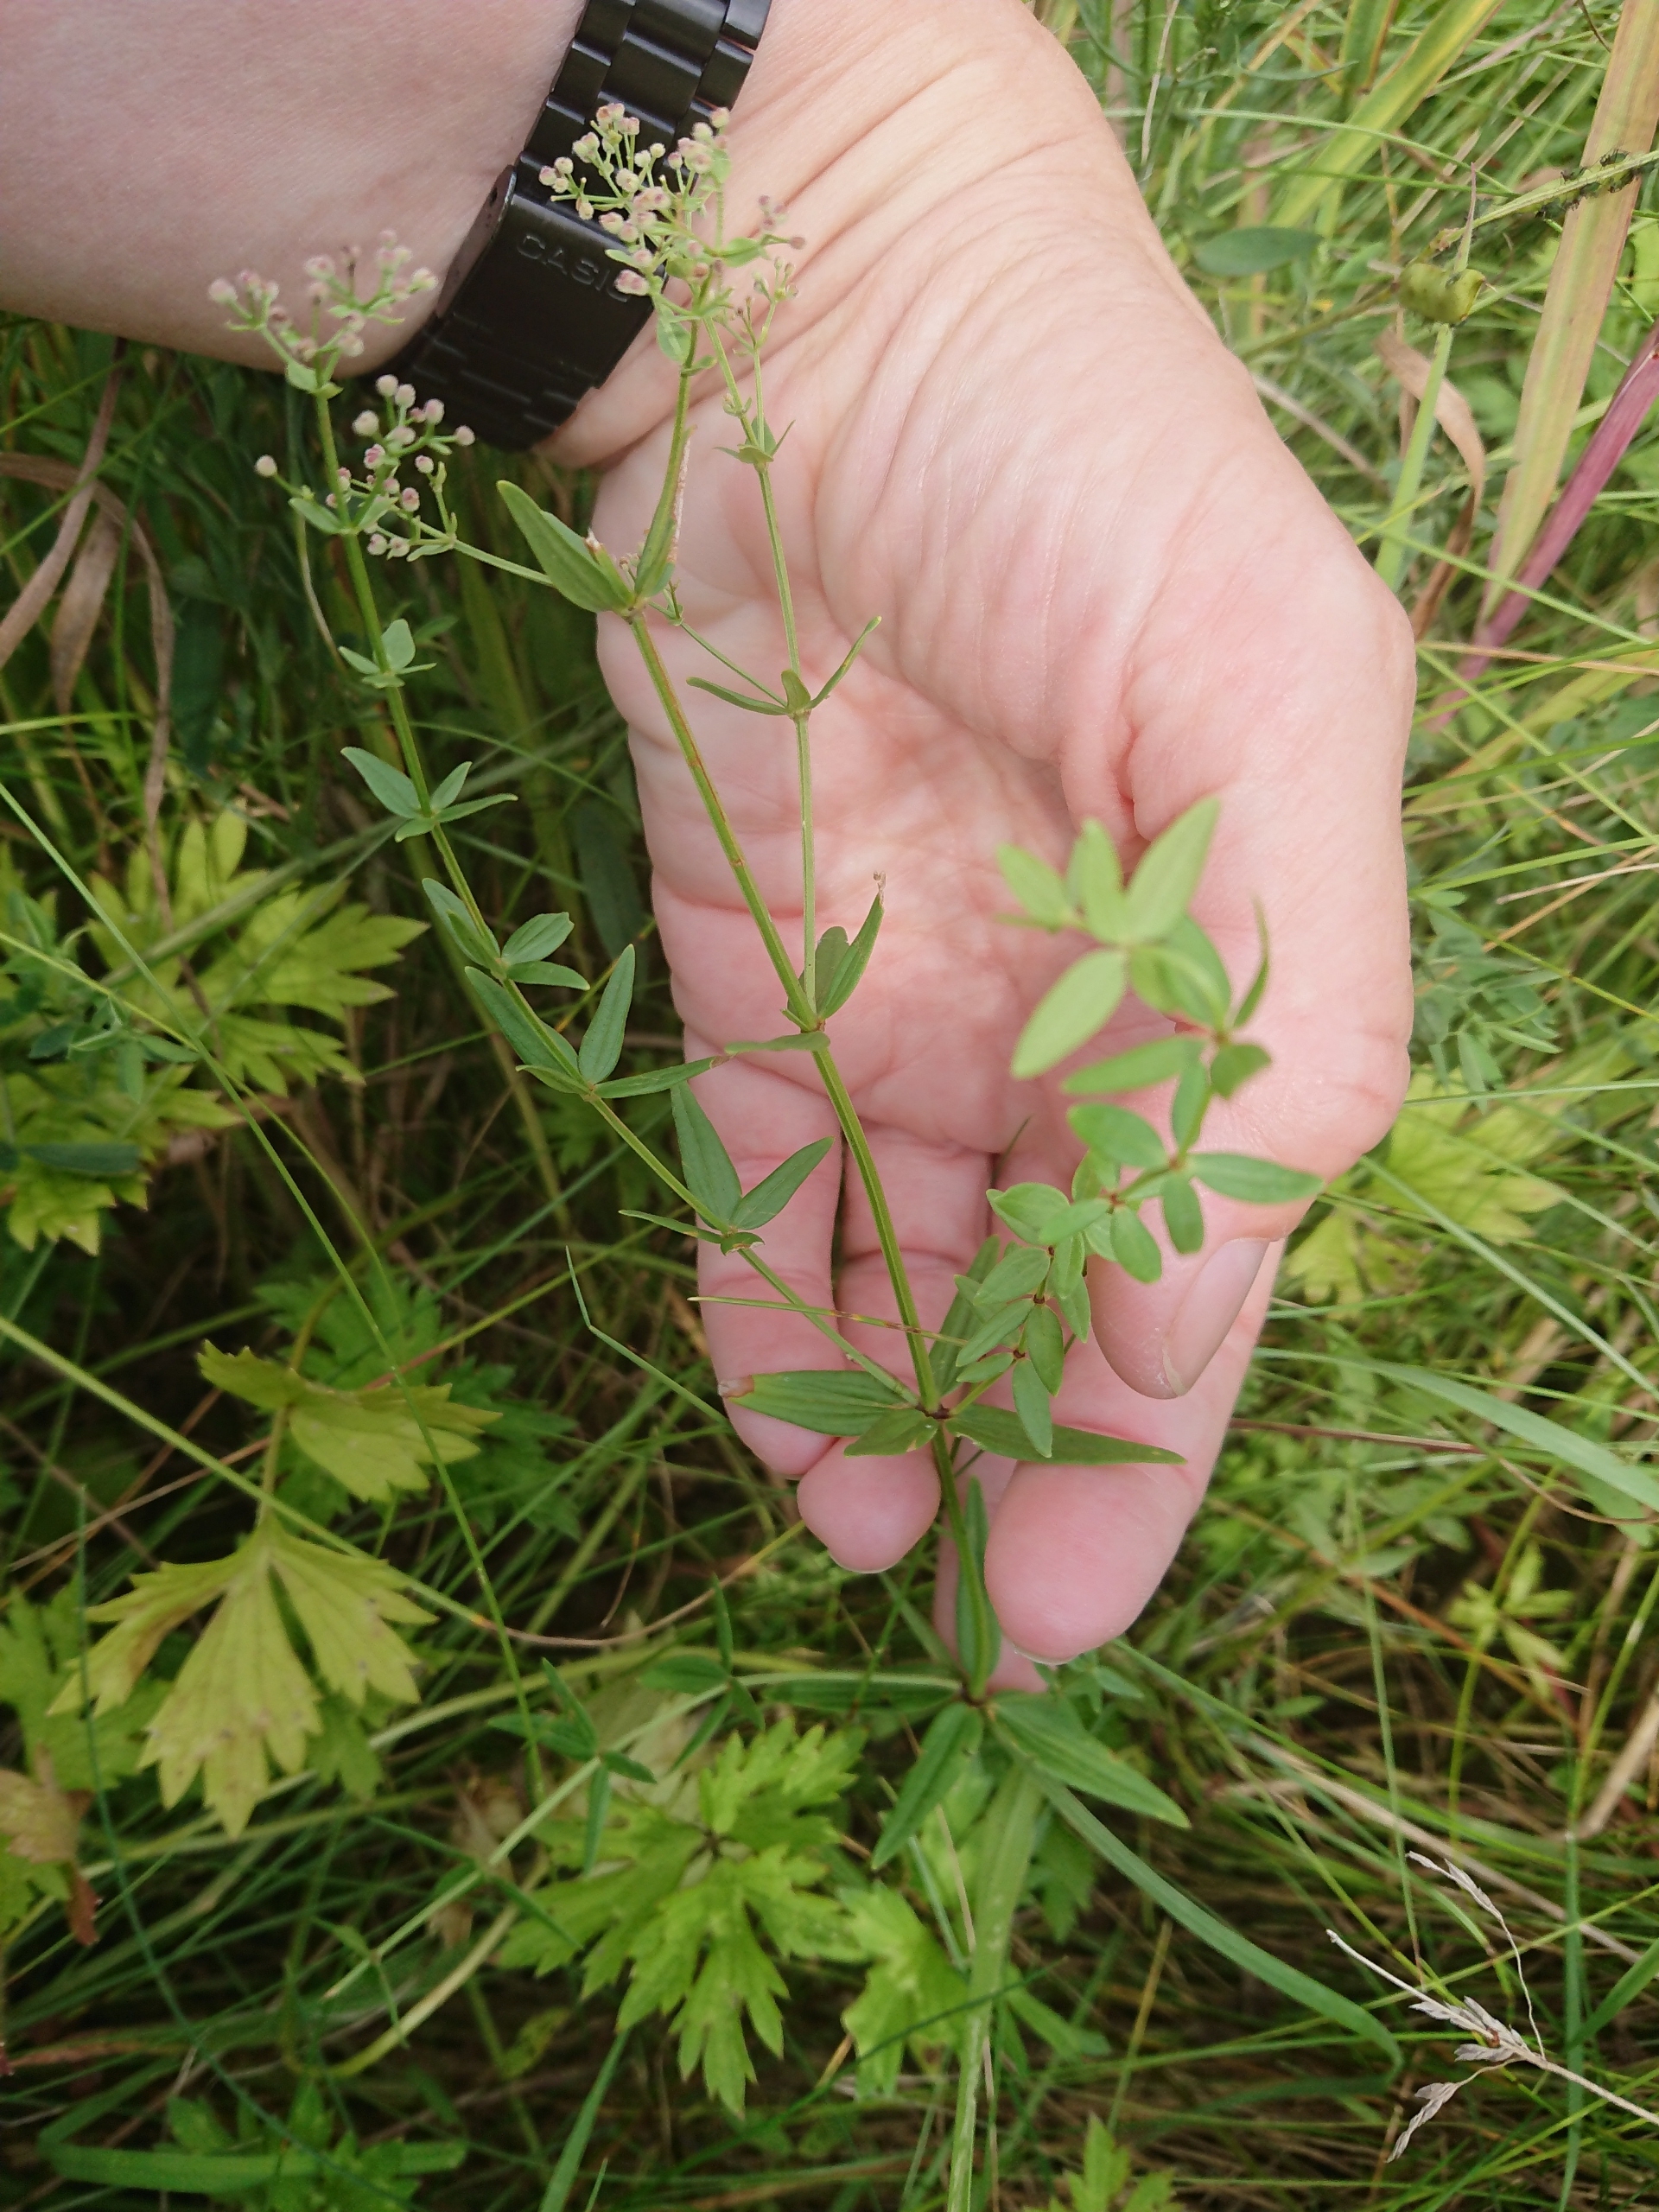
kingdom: Plantae
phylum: Tracheophyta
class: Magnoliopsida
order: Gentianales
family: Rubiaceae
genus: Galium
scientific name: Galium boreale
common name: Trenervet snerre
